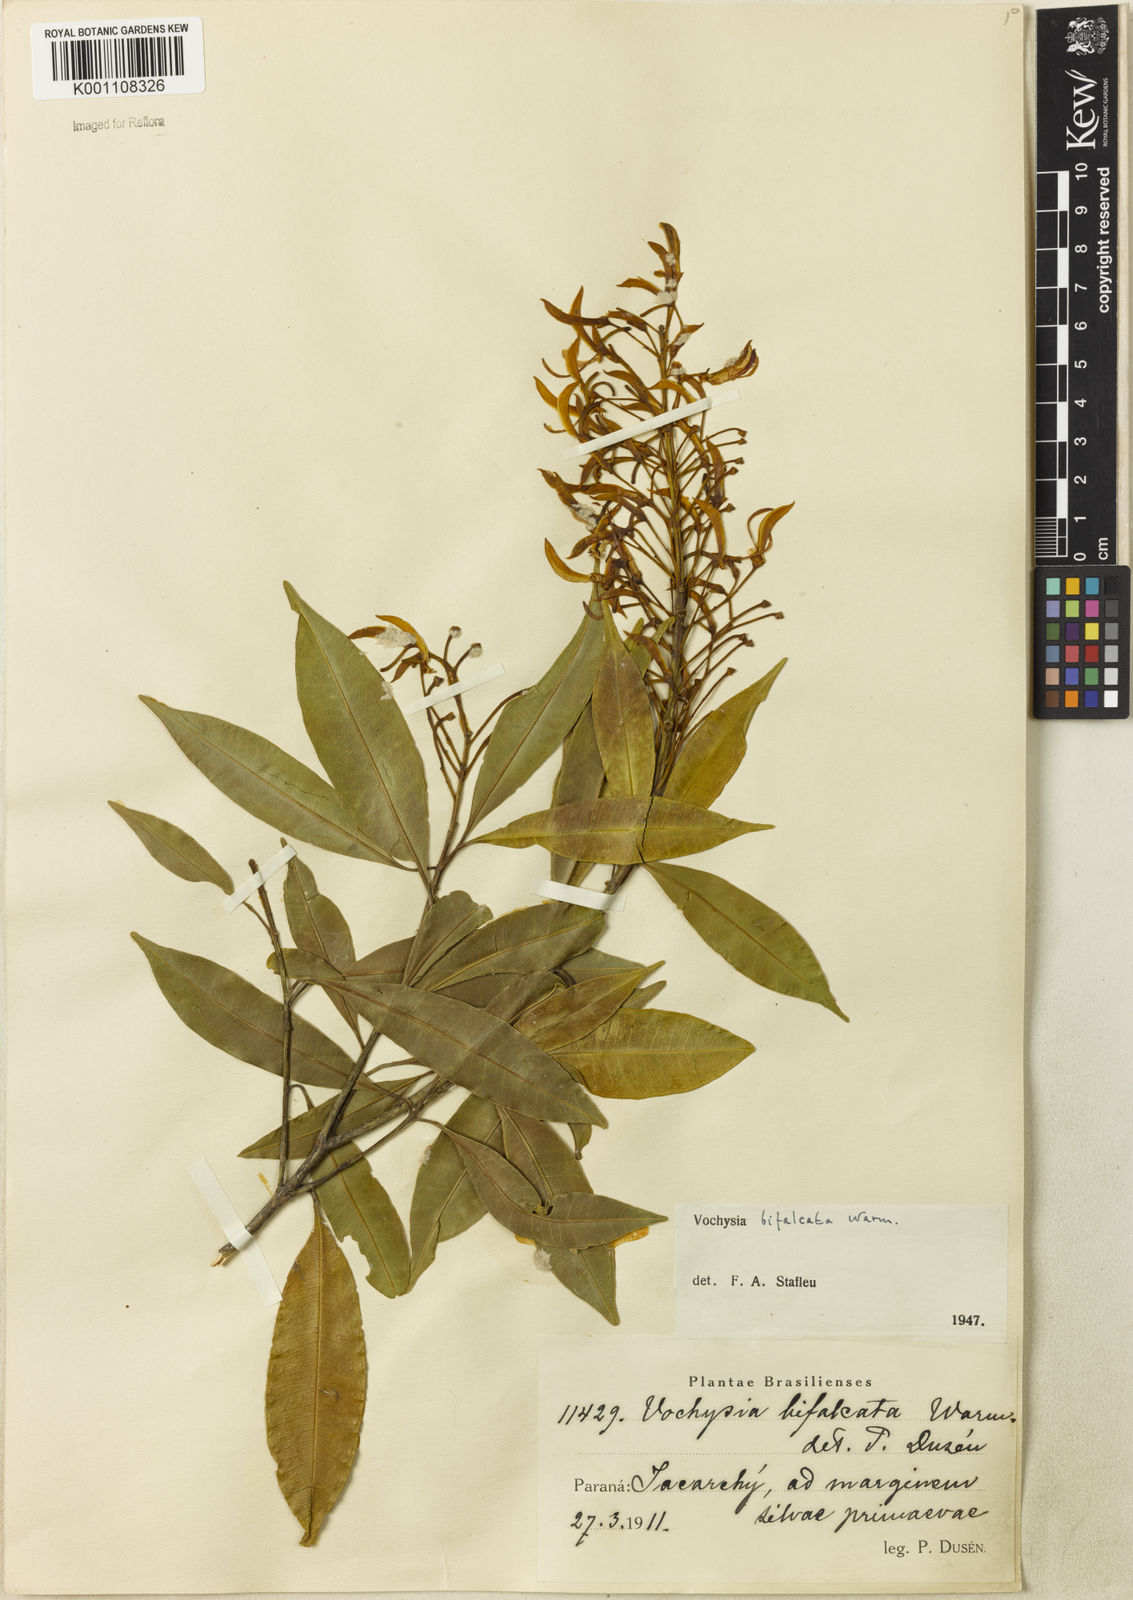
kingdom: Plantae
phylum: Tracheophyta
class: Magnoliopsida
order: Myrtales
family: Vochysiaceae
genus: Vochysia
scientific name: Vochysia bifalcata
